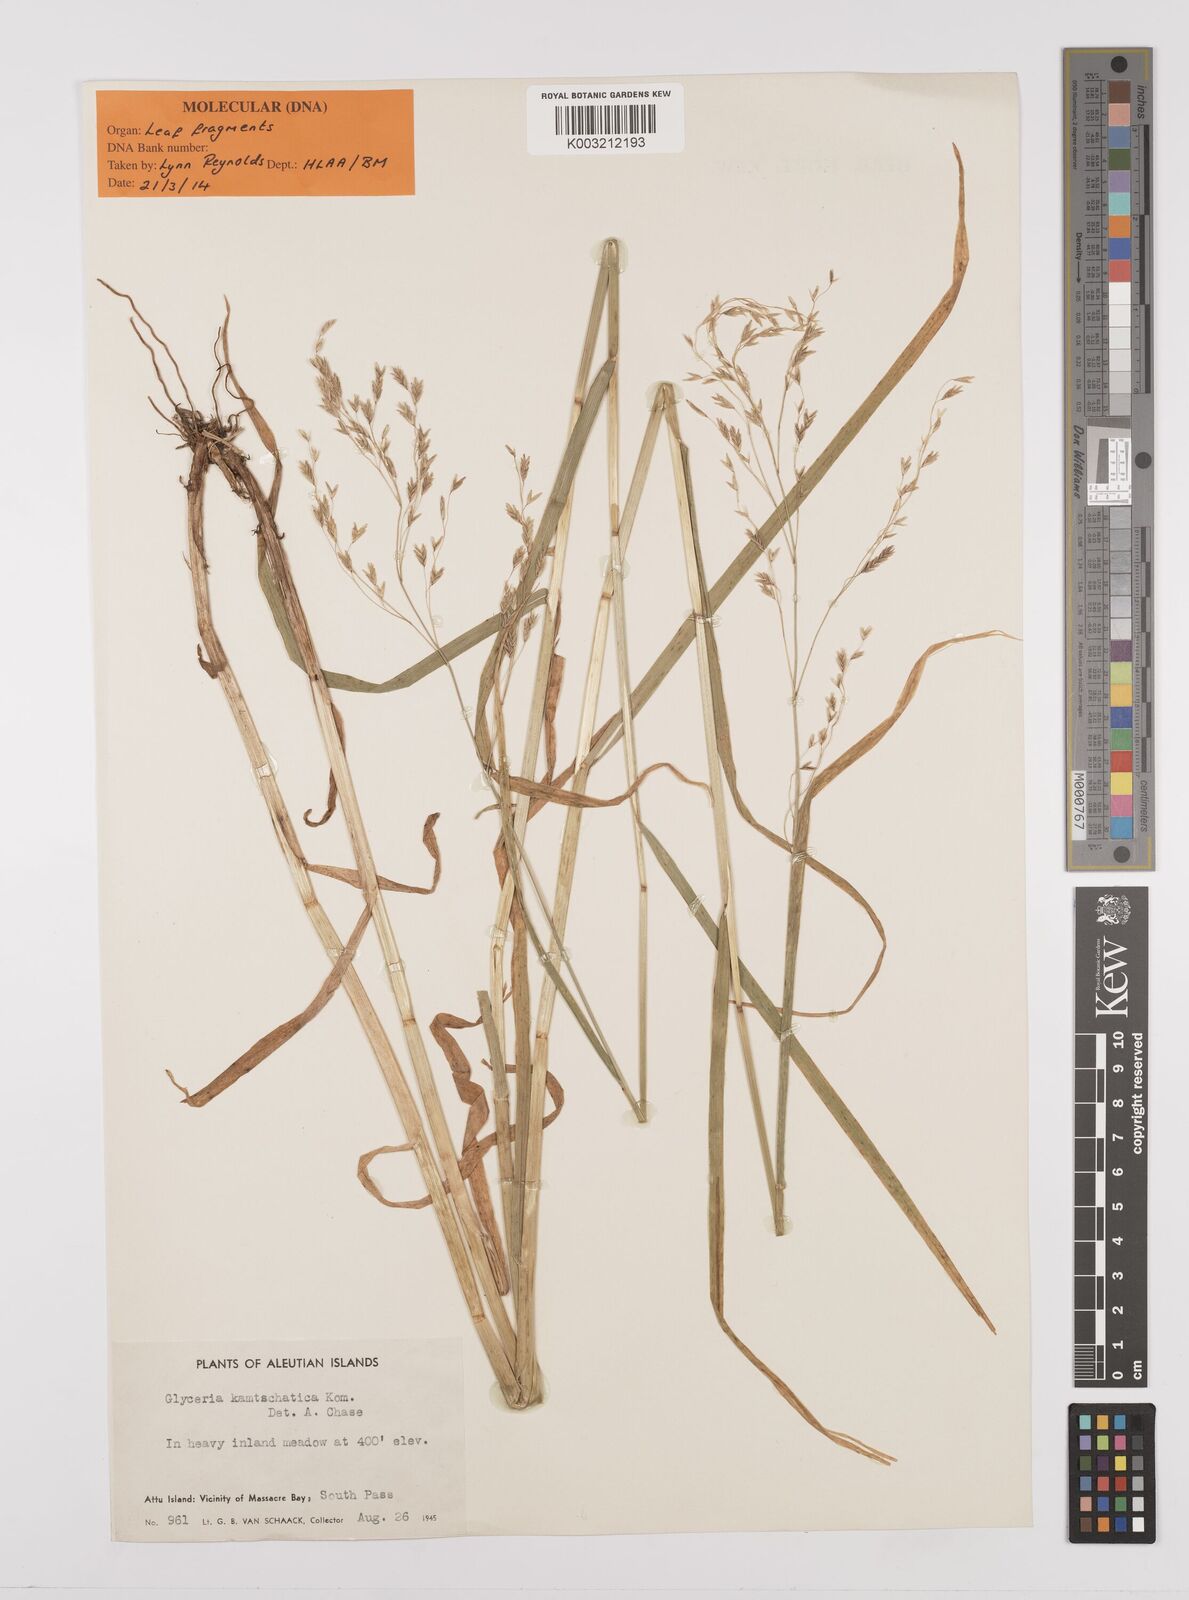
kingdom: Plantae
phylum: Tracheophyta
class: Liliopsida
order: Poales
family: Poaceae
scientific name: Poaceae
